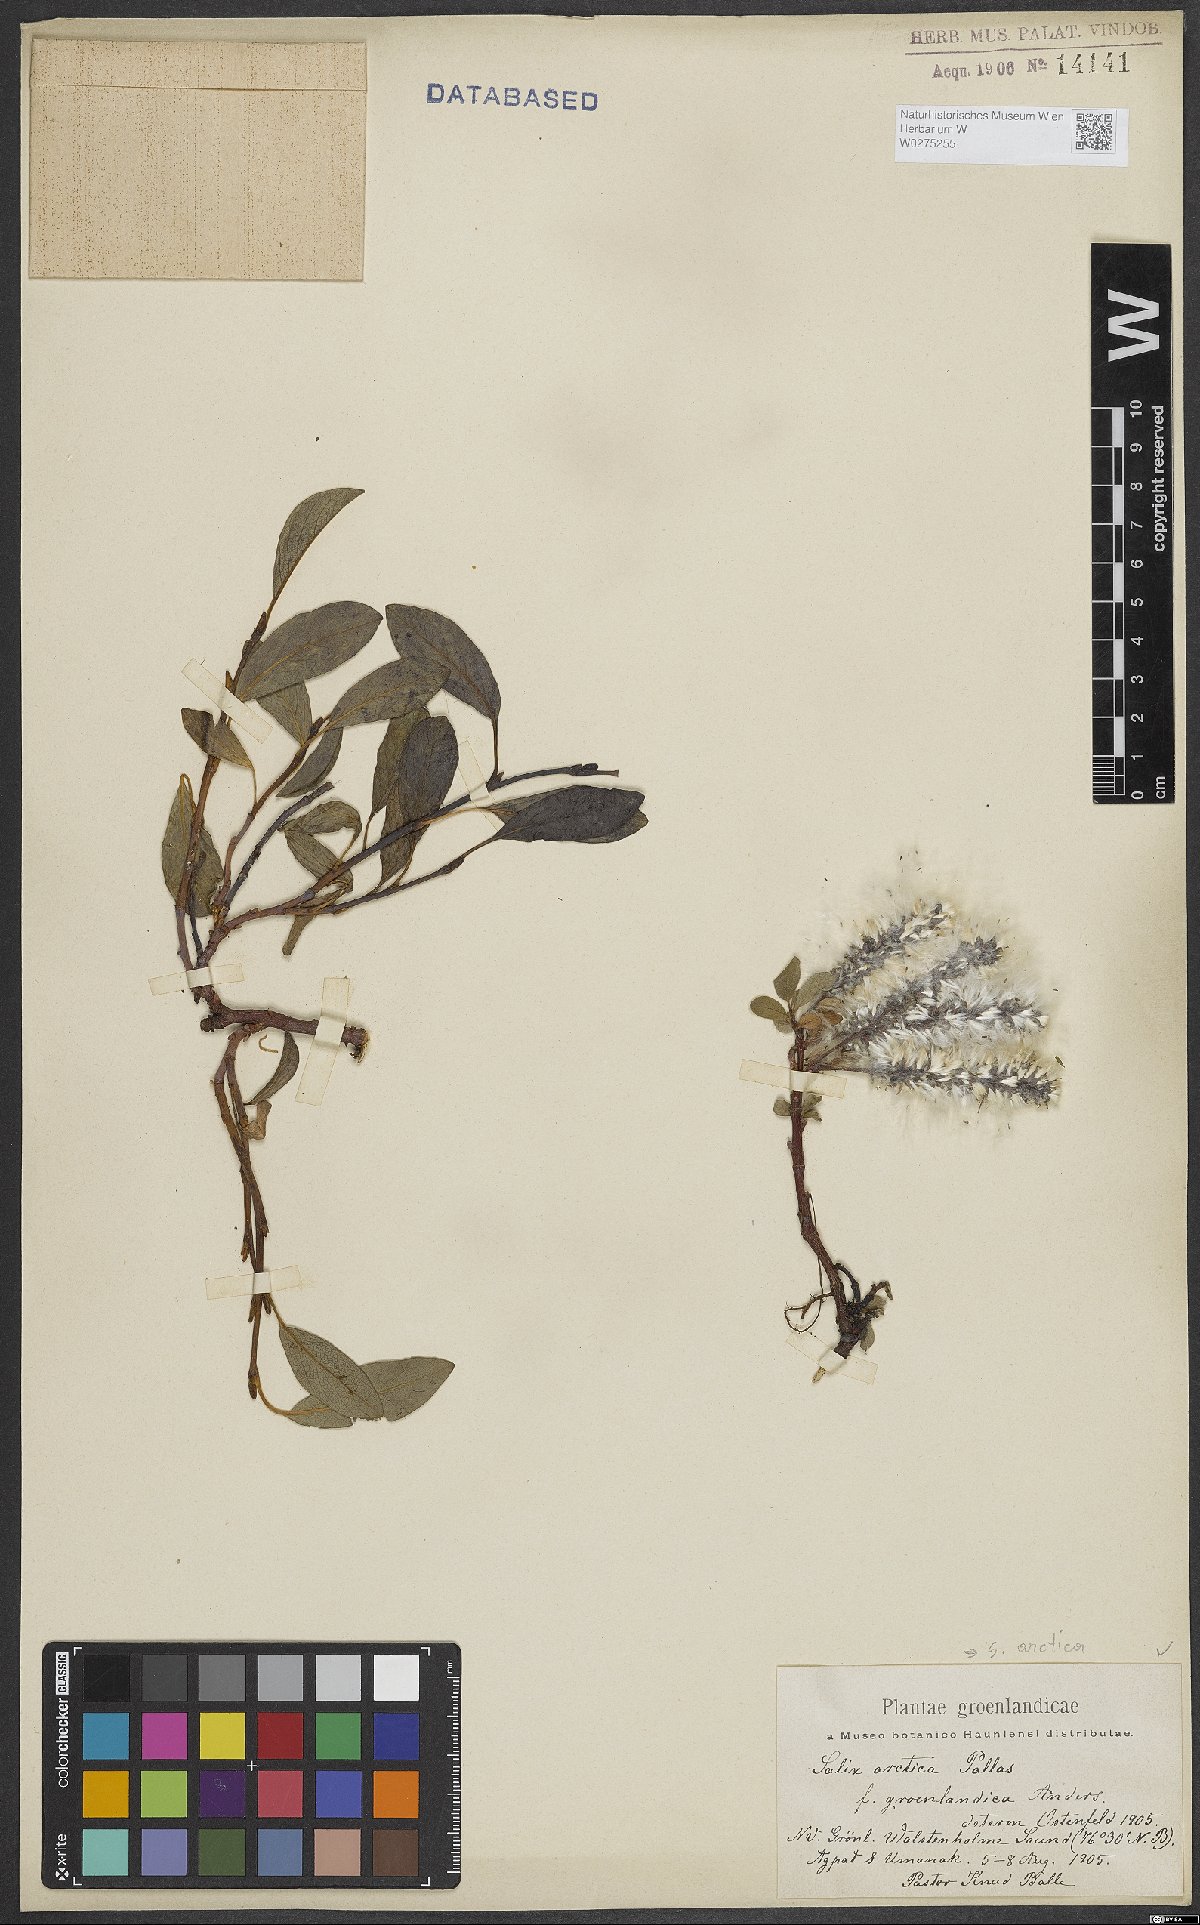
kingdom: Plantae
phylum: Tracheophyta
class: Magnoliopsida
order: Malpighiales
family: Salicaceae
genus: Salix
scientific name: Salix arctica
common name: Arctic willow
